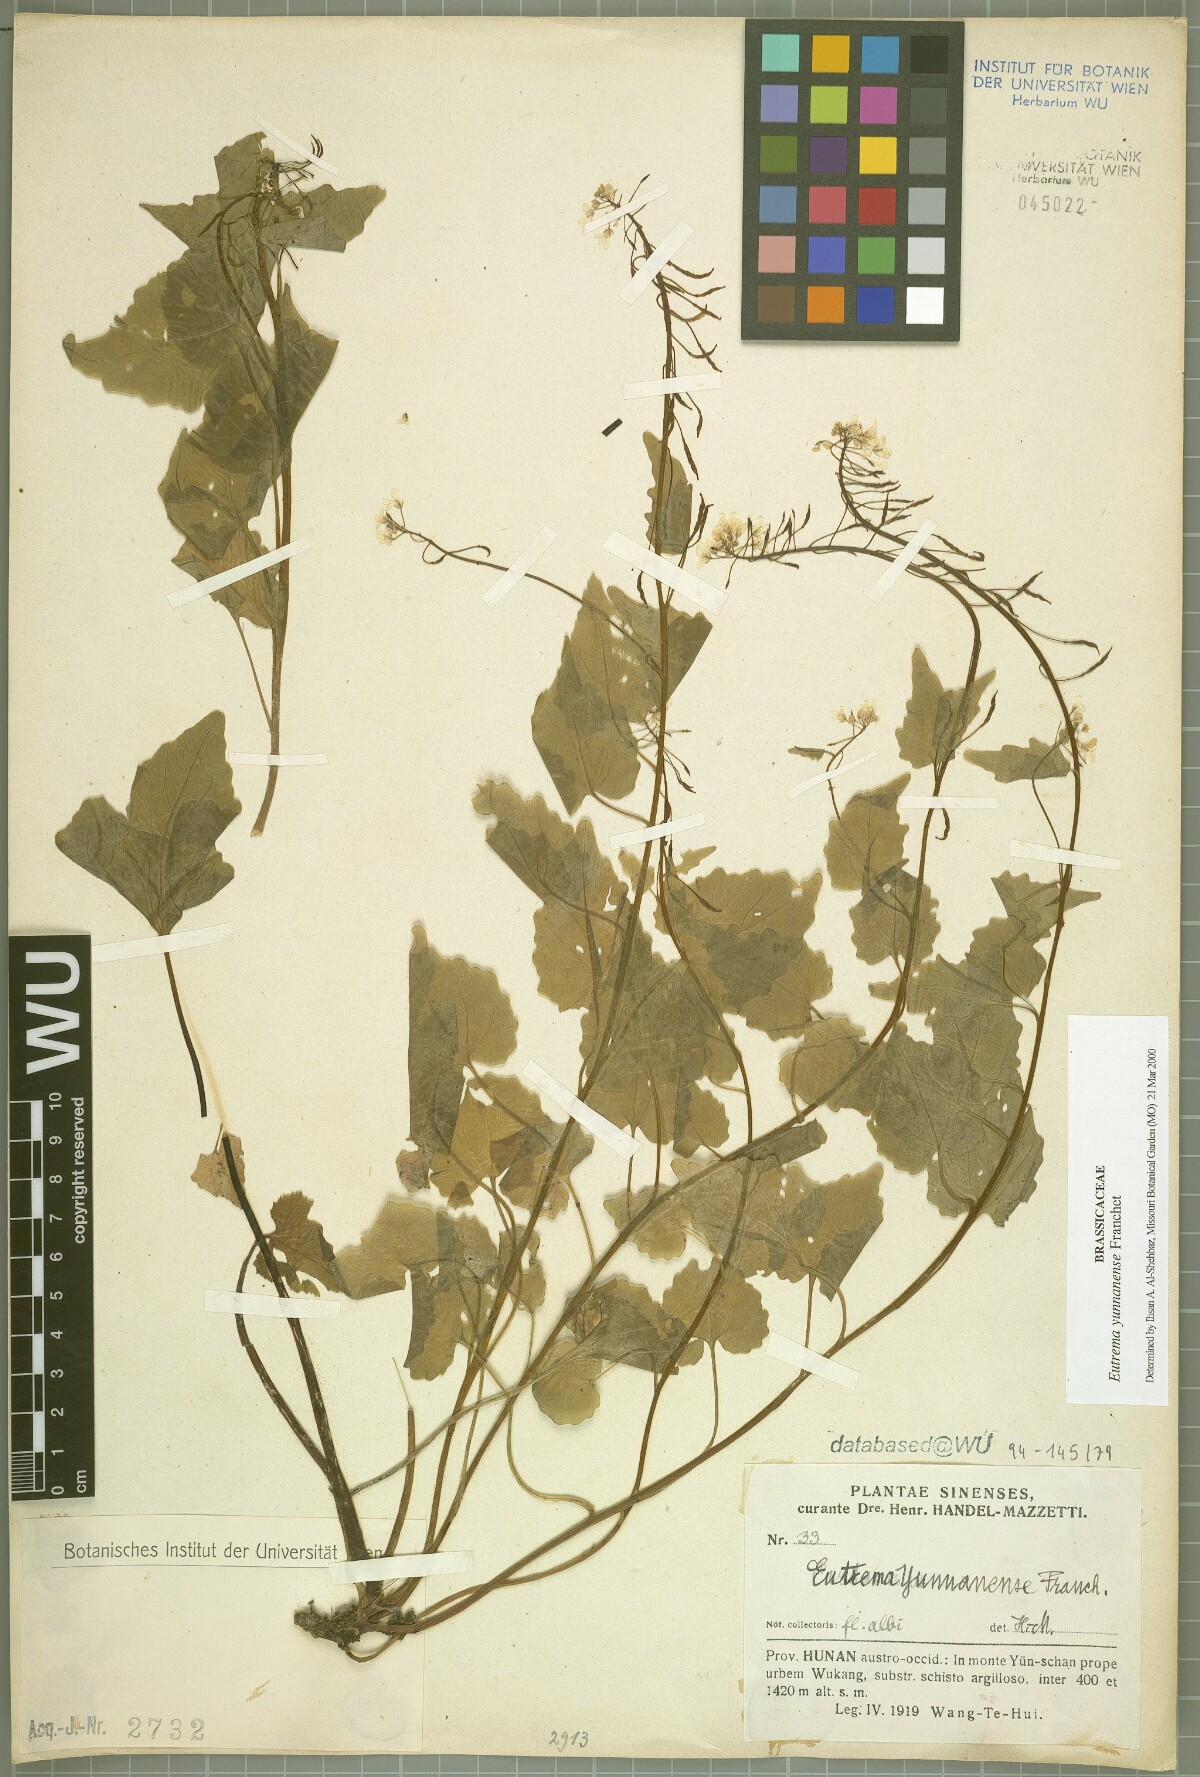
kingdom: Plantae
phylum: Tracheophyta
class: Magnoliopsida
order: Brassicales
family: Brassicaceae
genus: Eutrema
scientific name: Eutrema yunnanense
